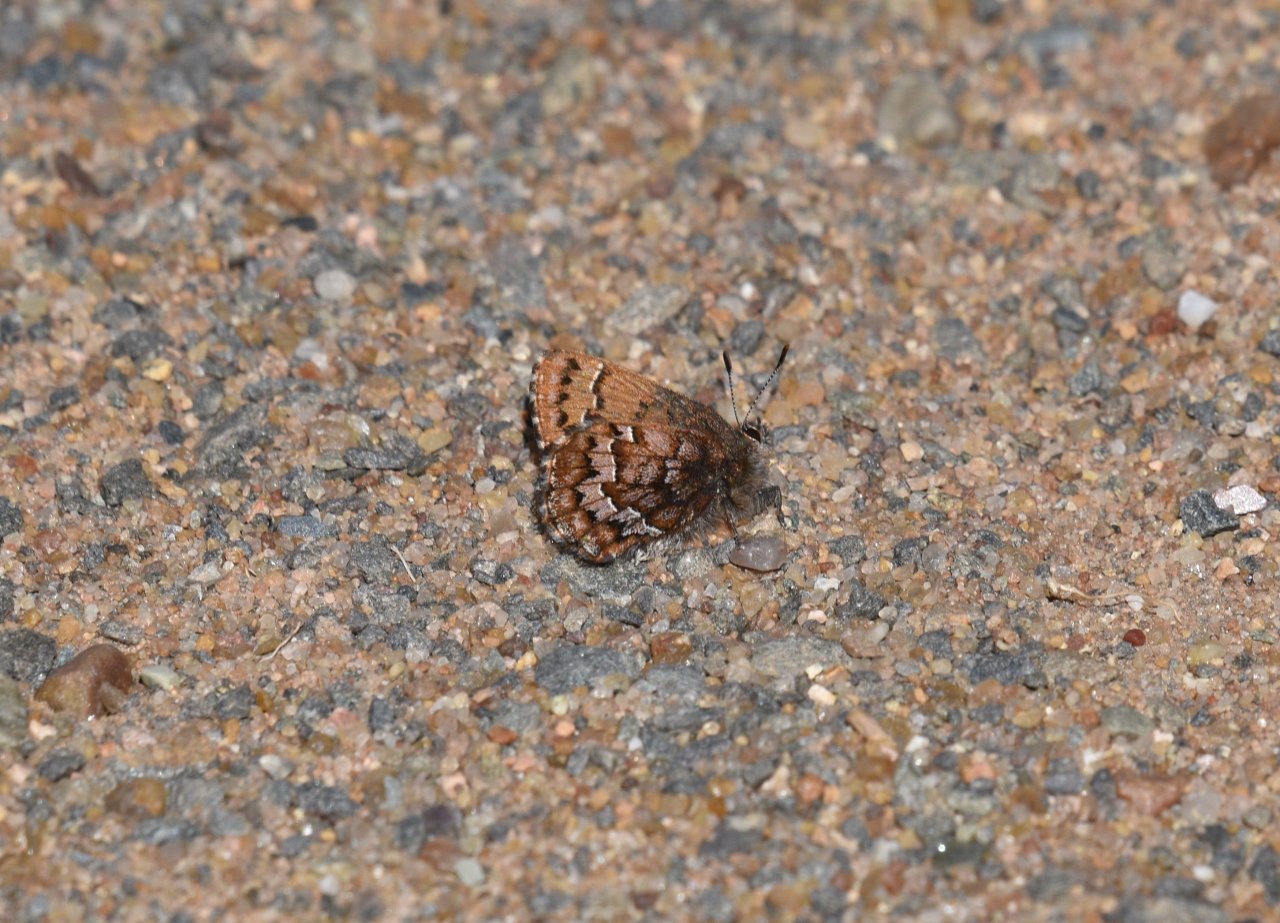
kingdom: Animalia
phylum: Arthropoda
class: Insecta
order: Lepidoptera
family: Lycaenidae
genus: Incisalia
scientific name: Incisalia niphon
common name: Eastern Pine Elfin
